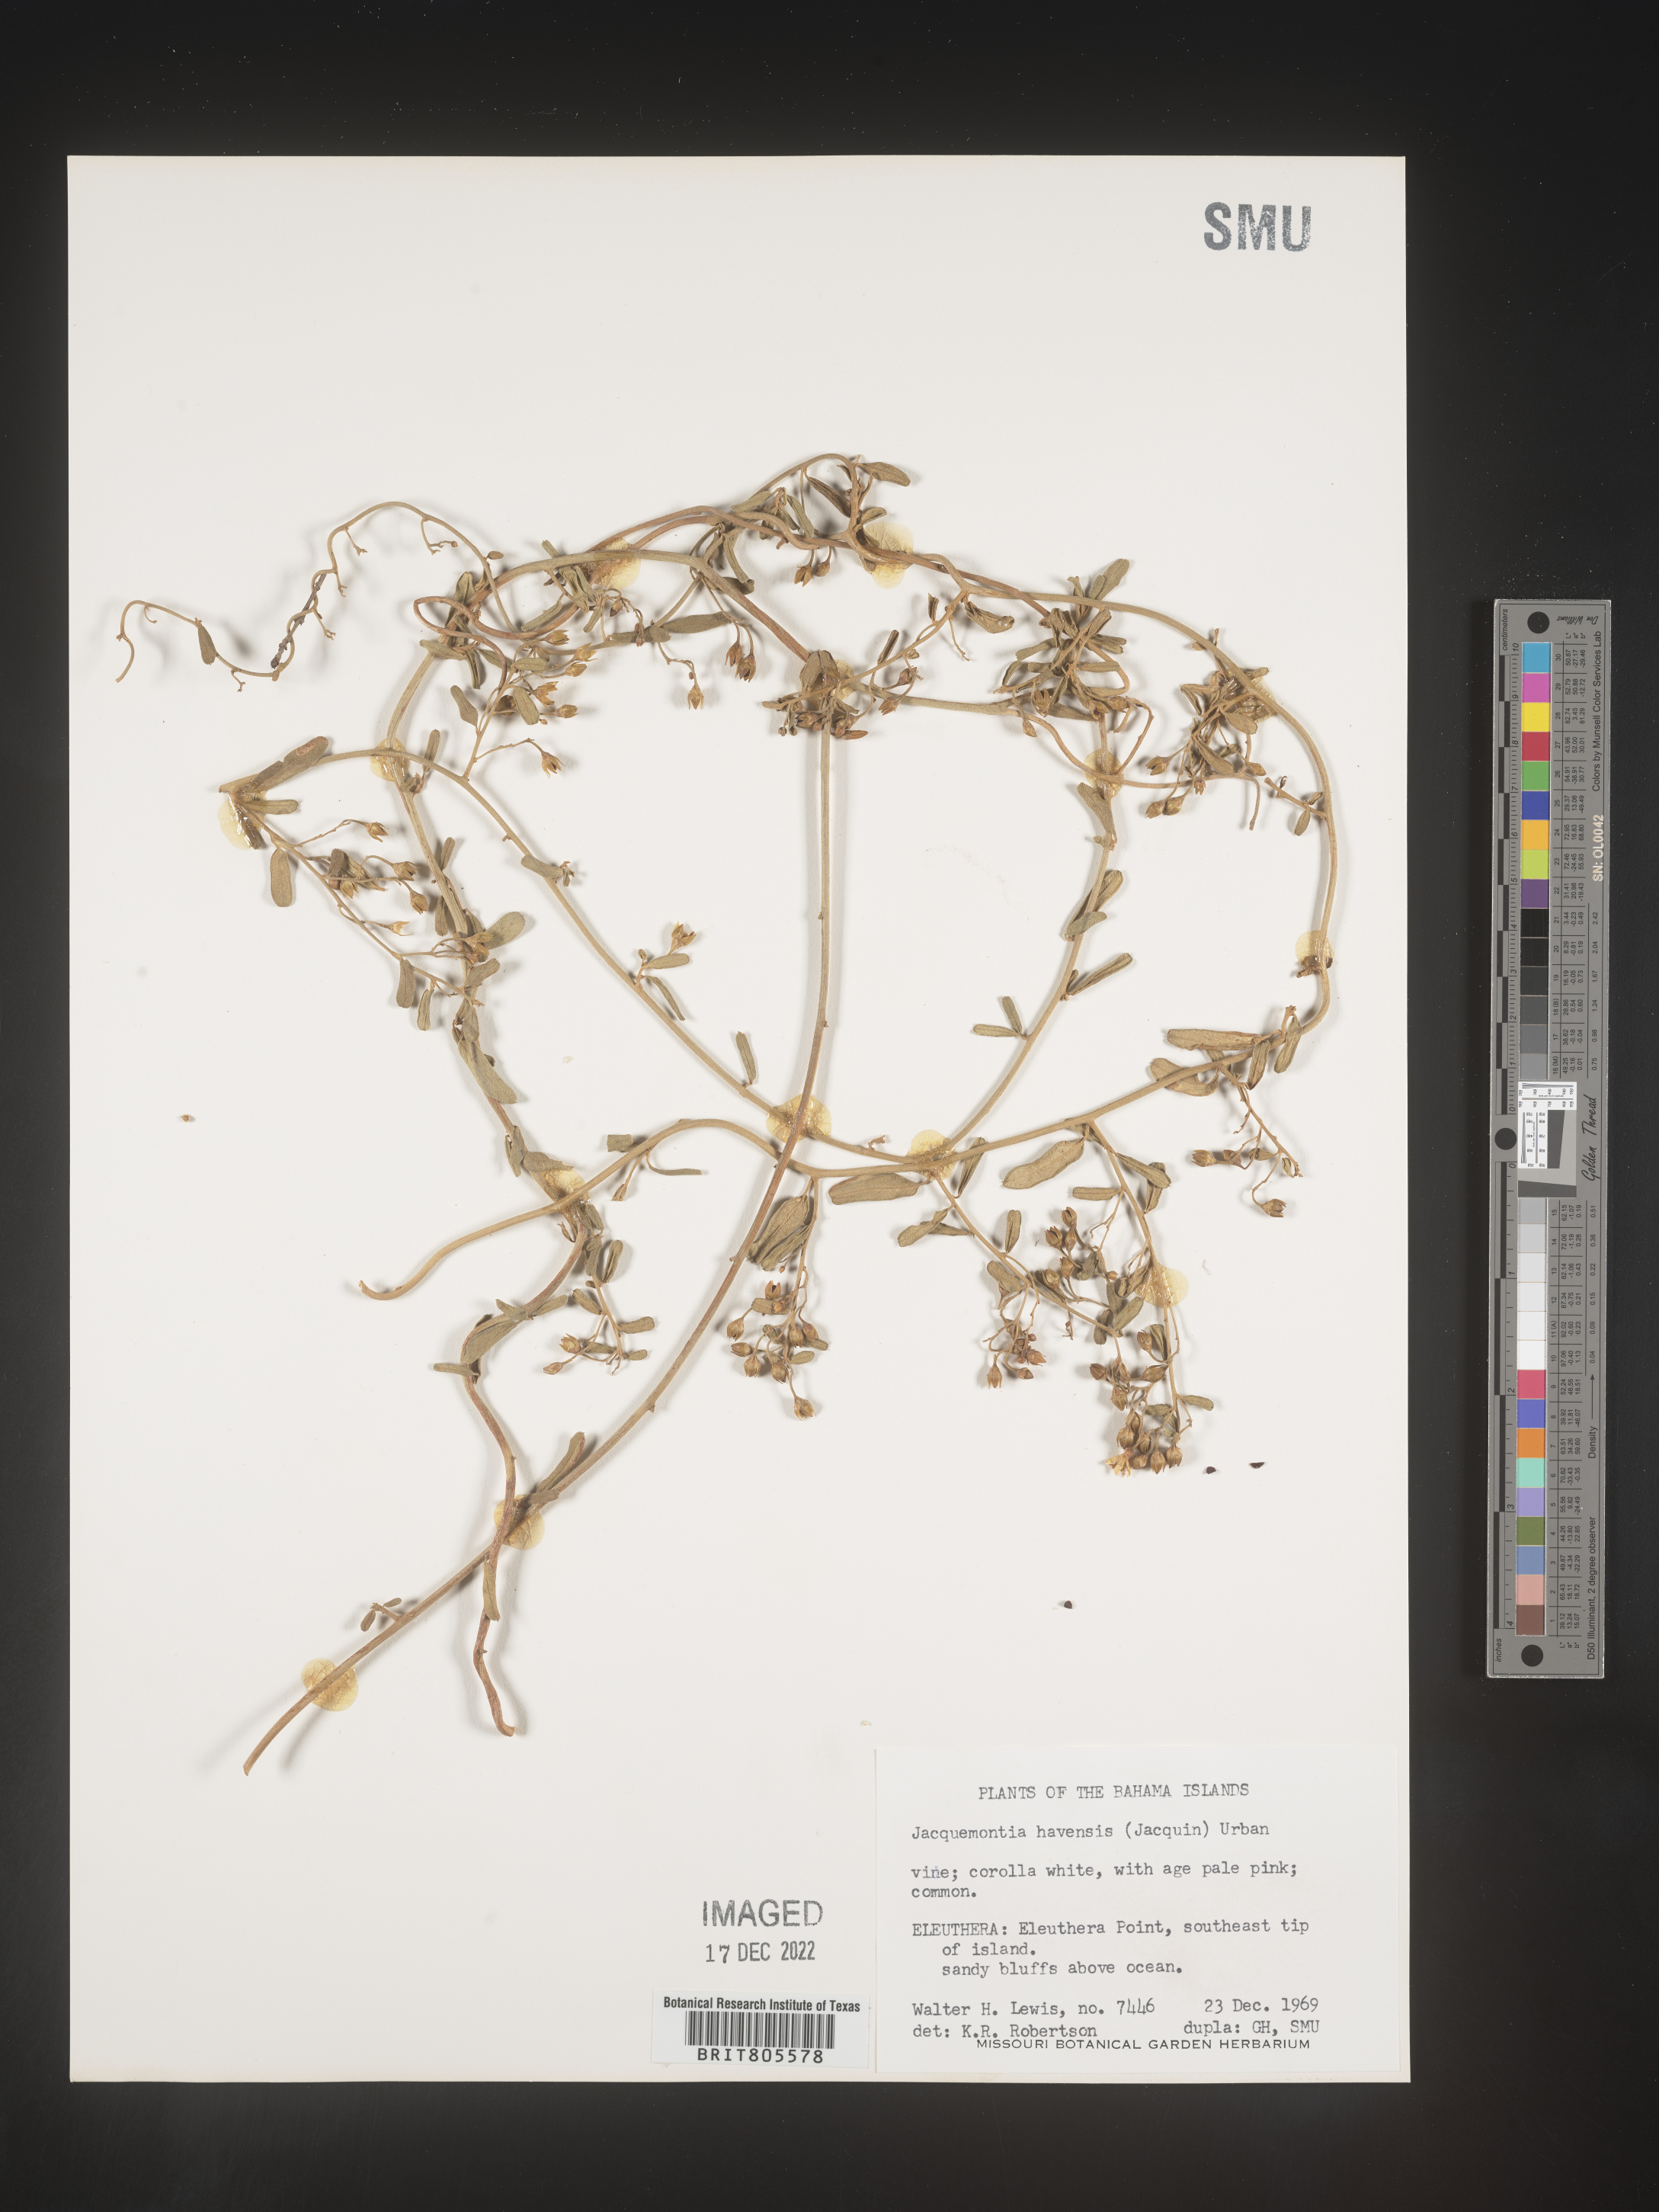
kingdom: Plantae
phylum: Tracheophyta
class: Magnoliopsida
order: Solanales
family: Convolvulaceae
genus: Jacquemontia
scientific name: Jacquemontia
